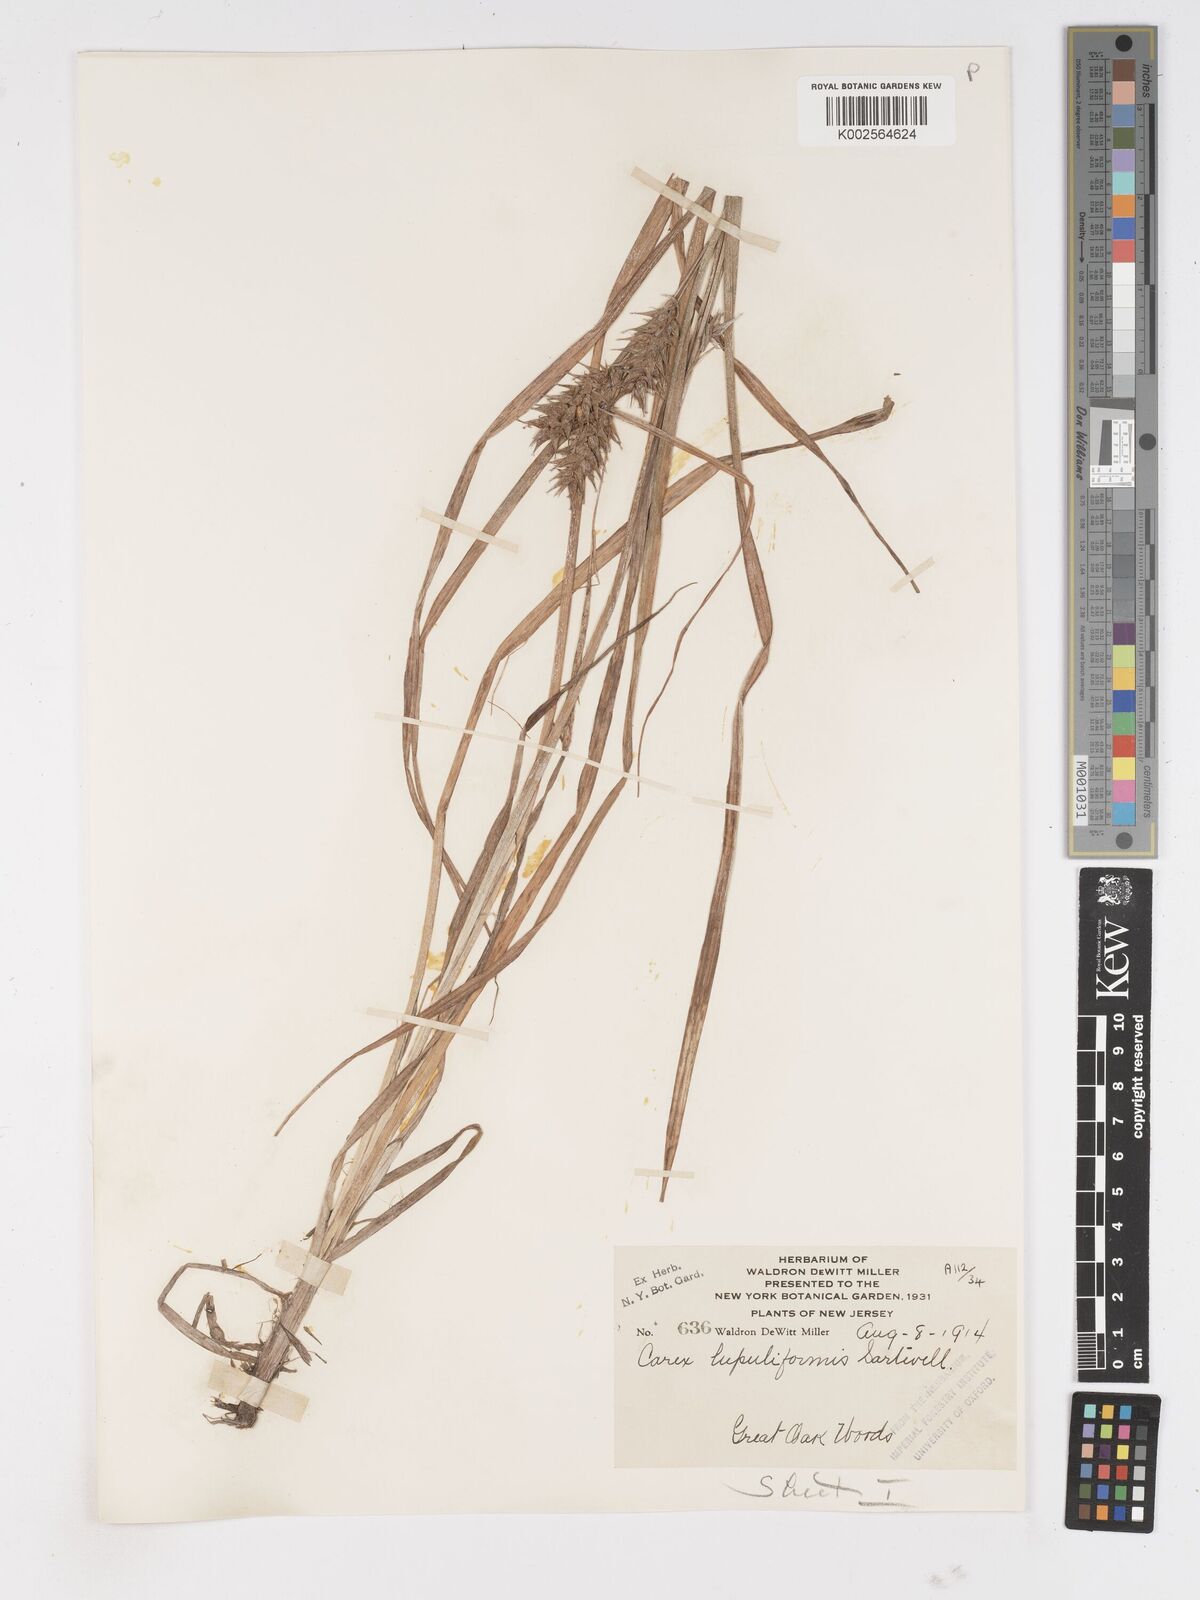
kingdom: Plantae
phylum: Tracheophyta
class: Liliopsida
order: Poales
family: Cyperaceae
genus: Carex
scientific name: Carex lupuliformis
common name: False hop sedge
